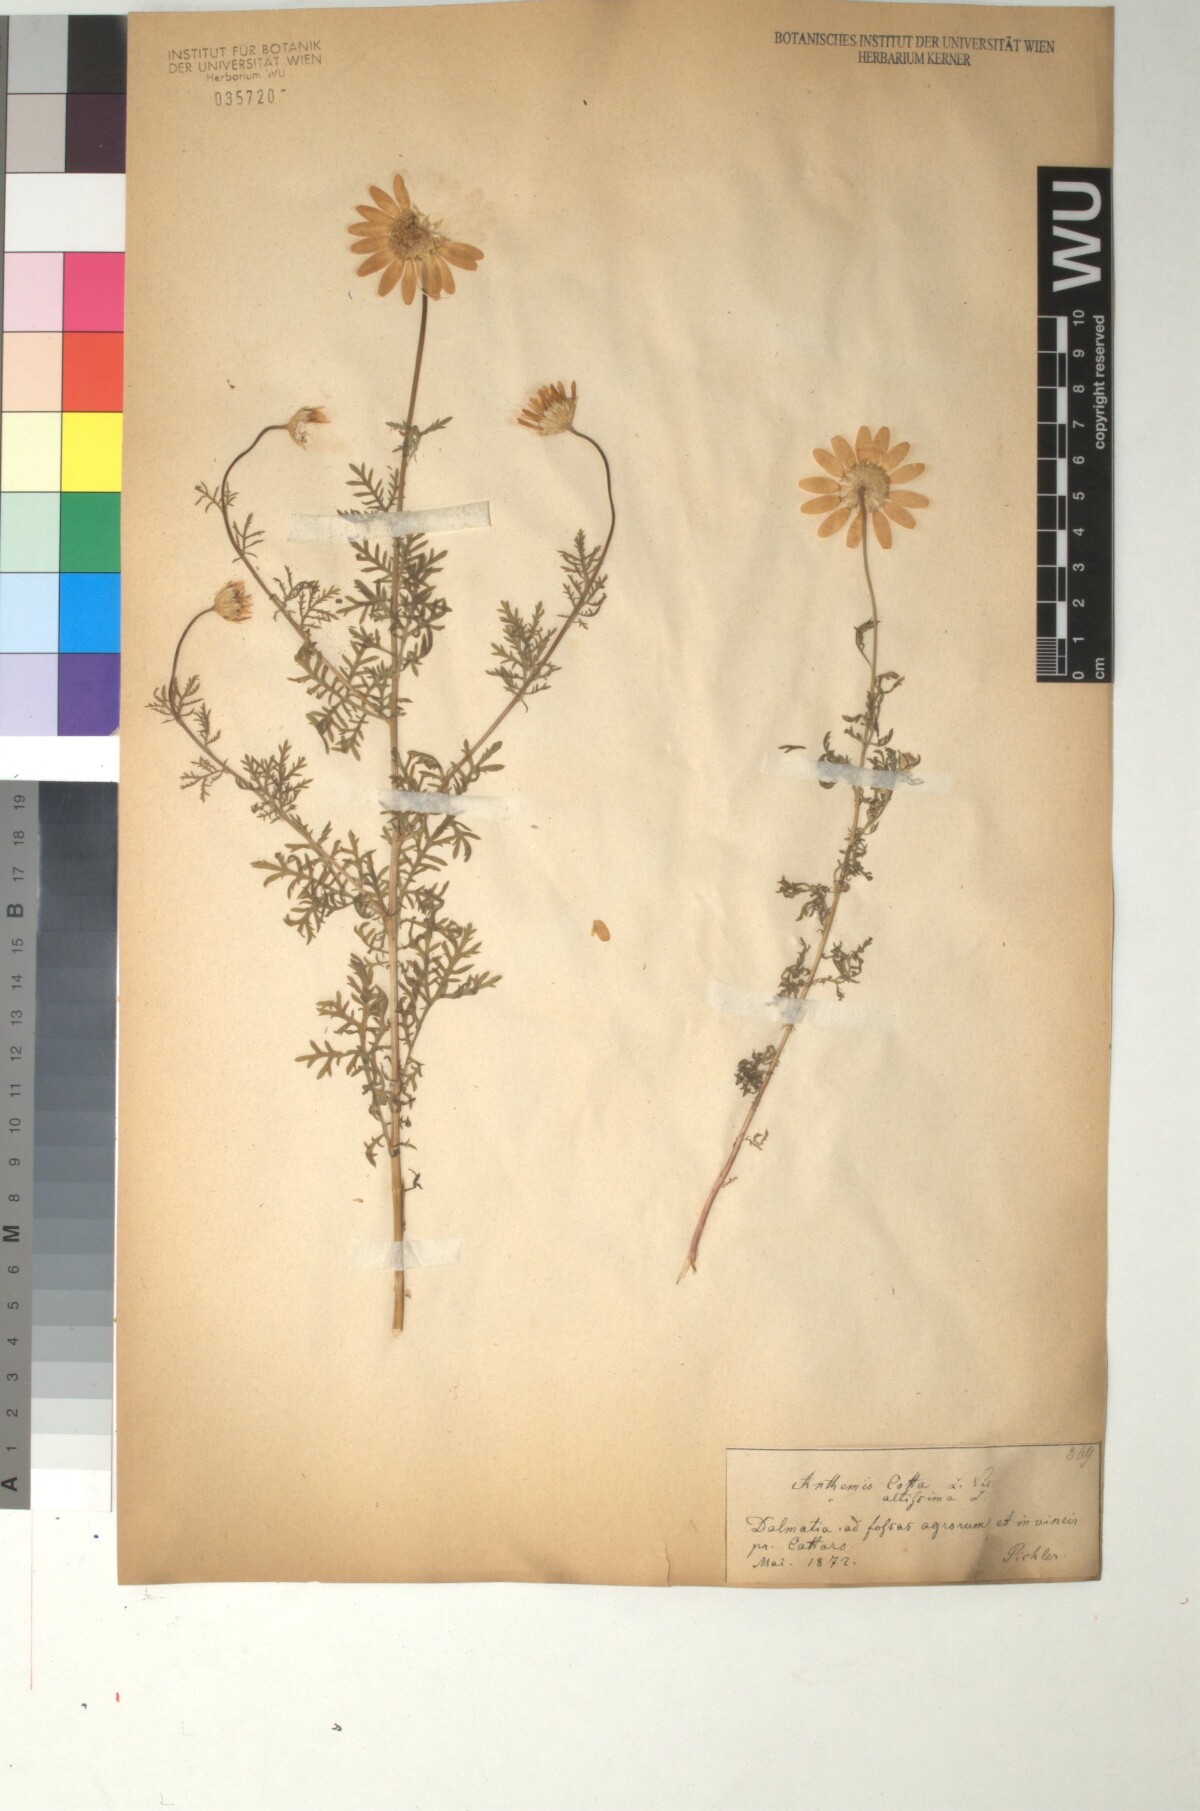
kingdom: Plantae
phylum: Tracheophyta
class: Magnoliopsida
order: Asterales
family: Asteraceae
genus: Cota
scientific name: Cota altissima
